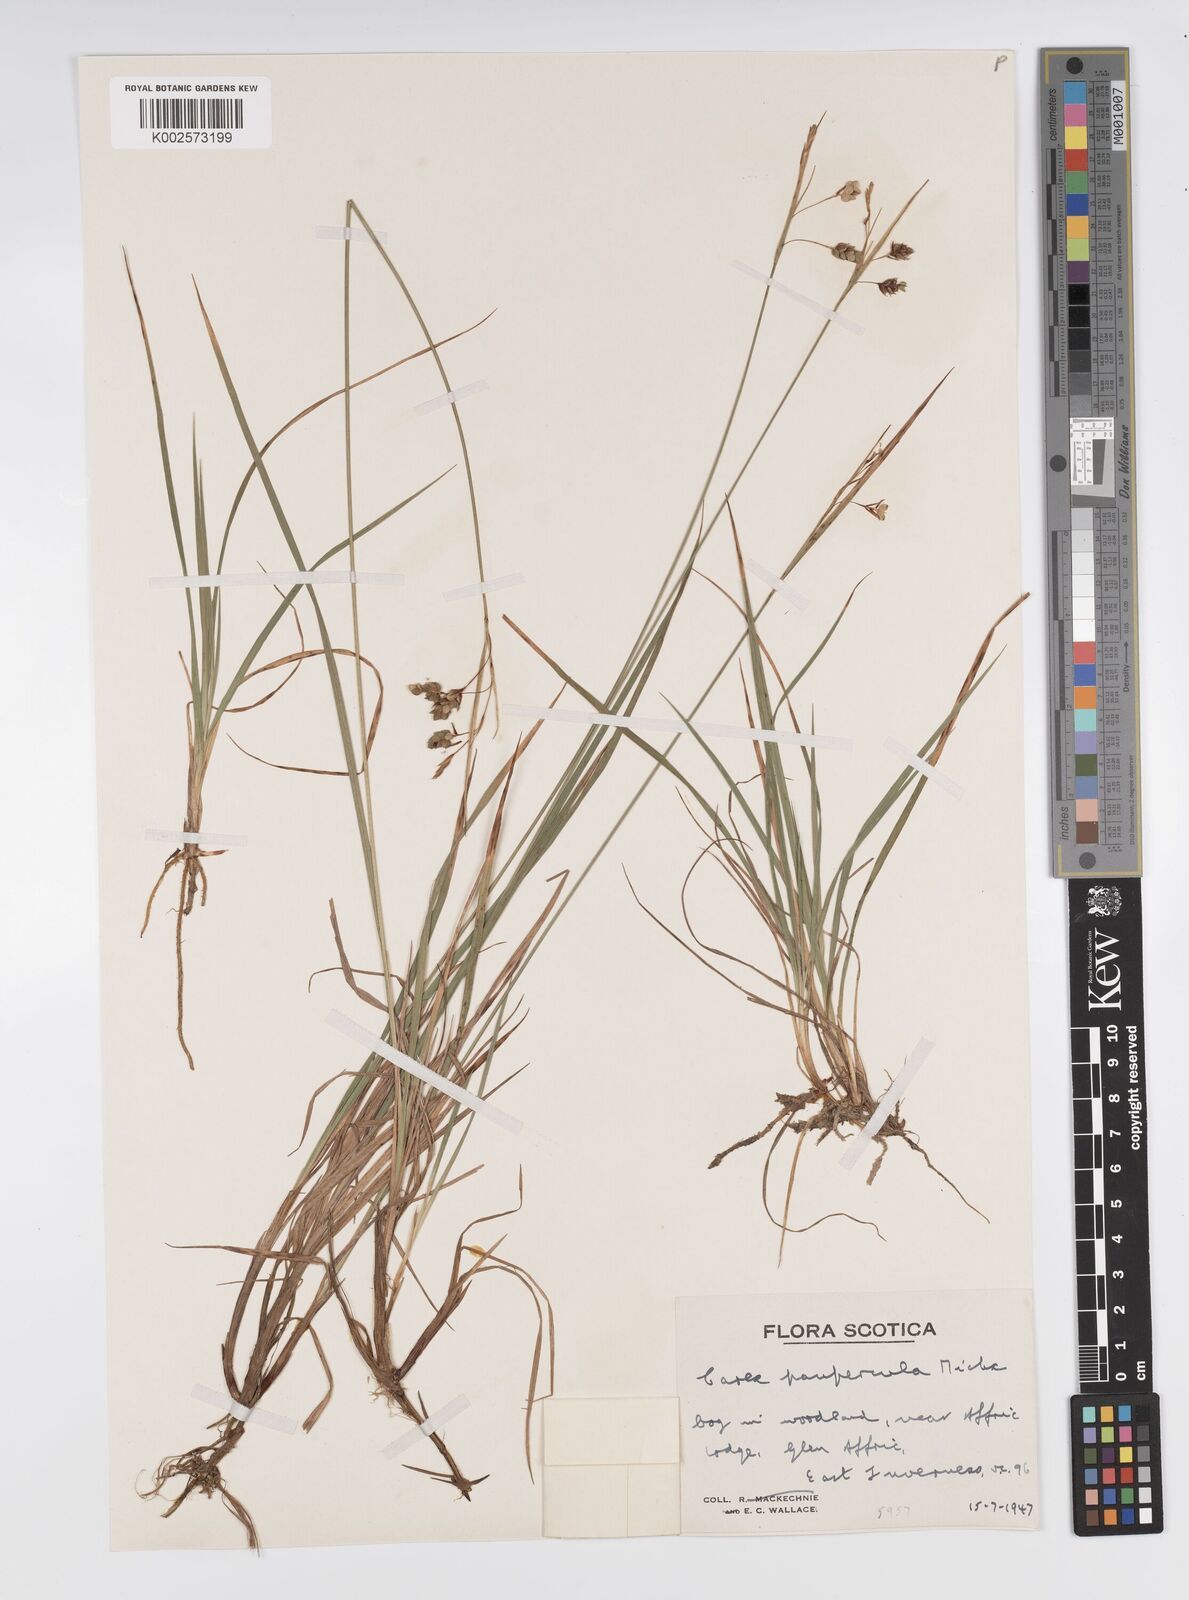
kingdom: Plantae
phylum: Tracheophyta
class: Liliopsida
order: Poales
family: Cyperaceae
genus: Carex
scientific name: Carex magellanica
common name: Bog sedge
